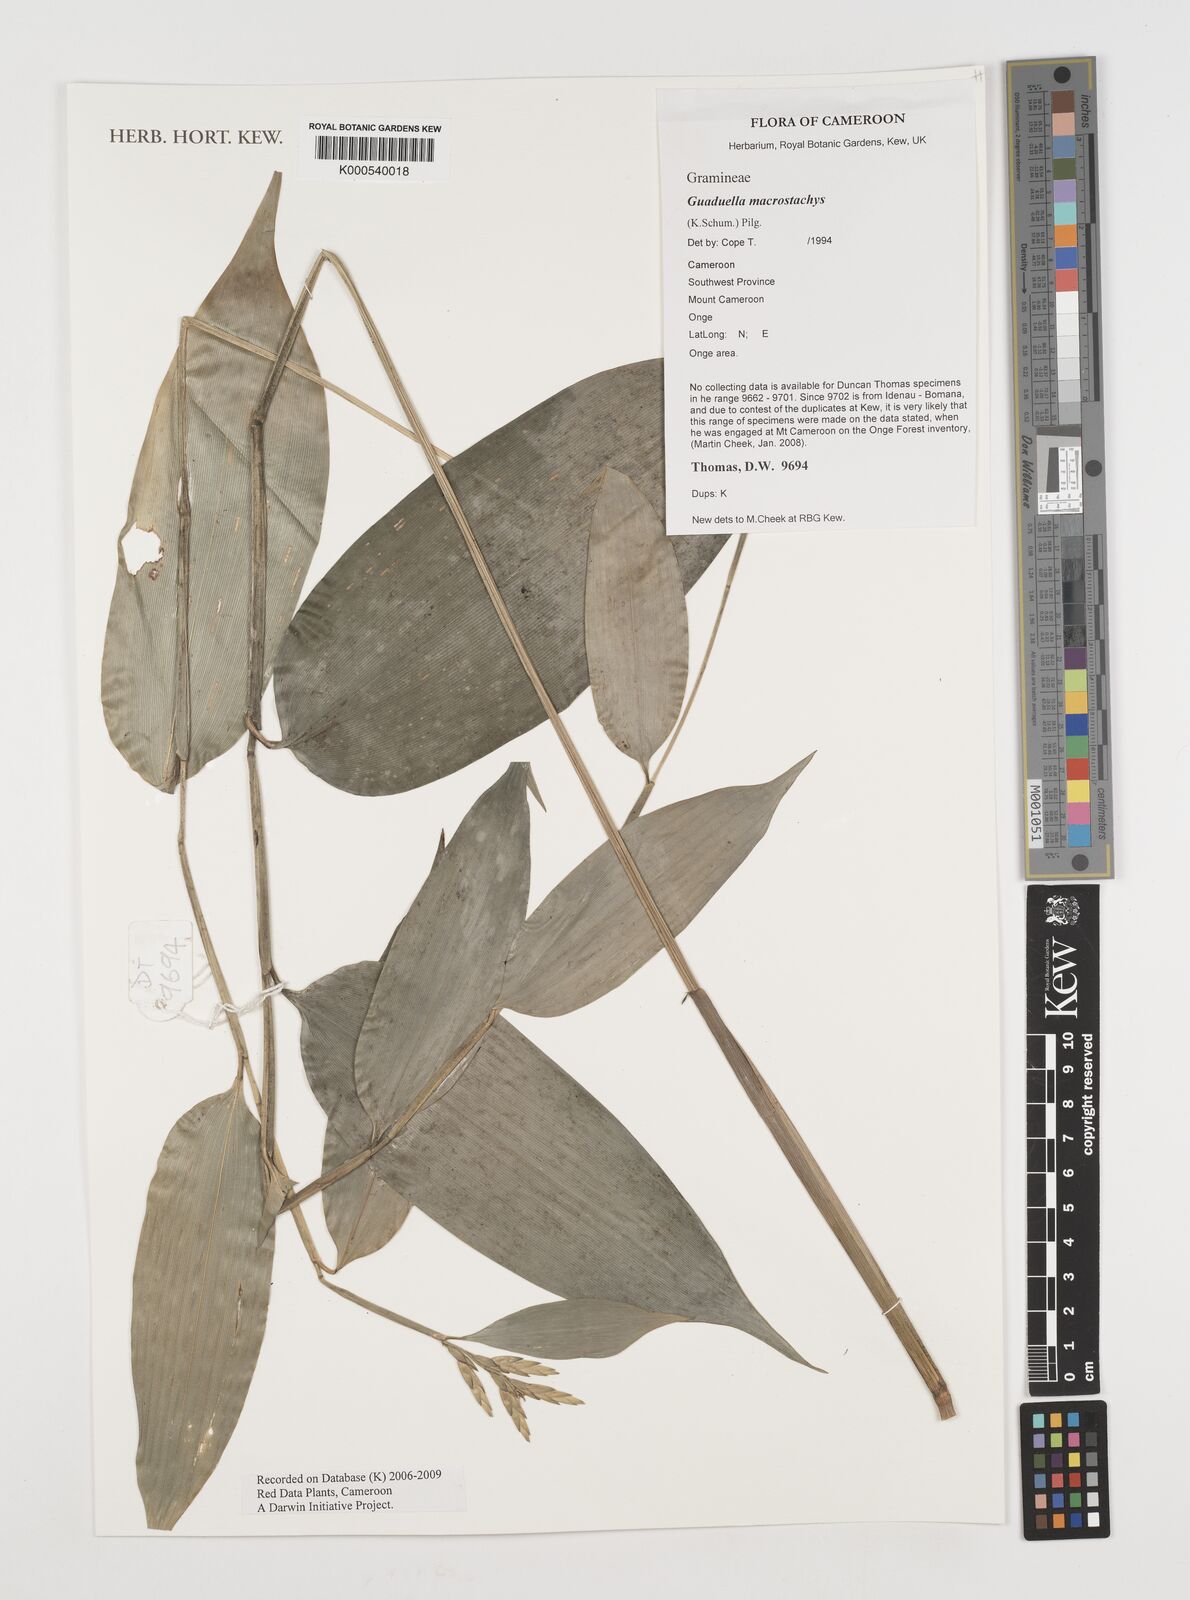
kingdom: Plantae
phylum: Tracheophyta
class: Liliopsida
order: Poales
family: Poaceae
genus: Guaduella
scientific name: Guaduella macrostachys
